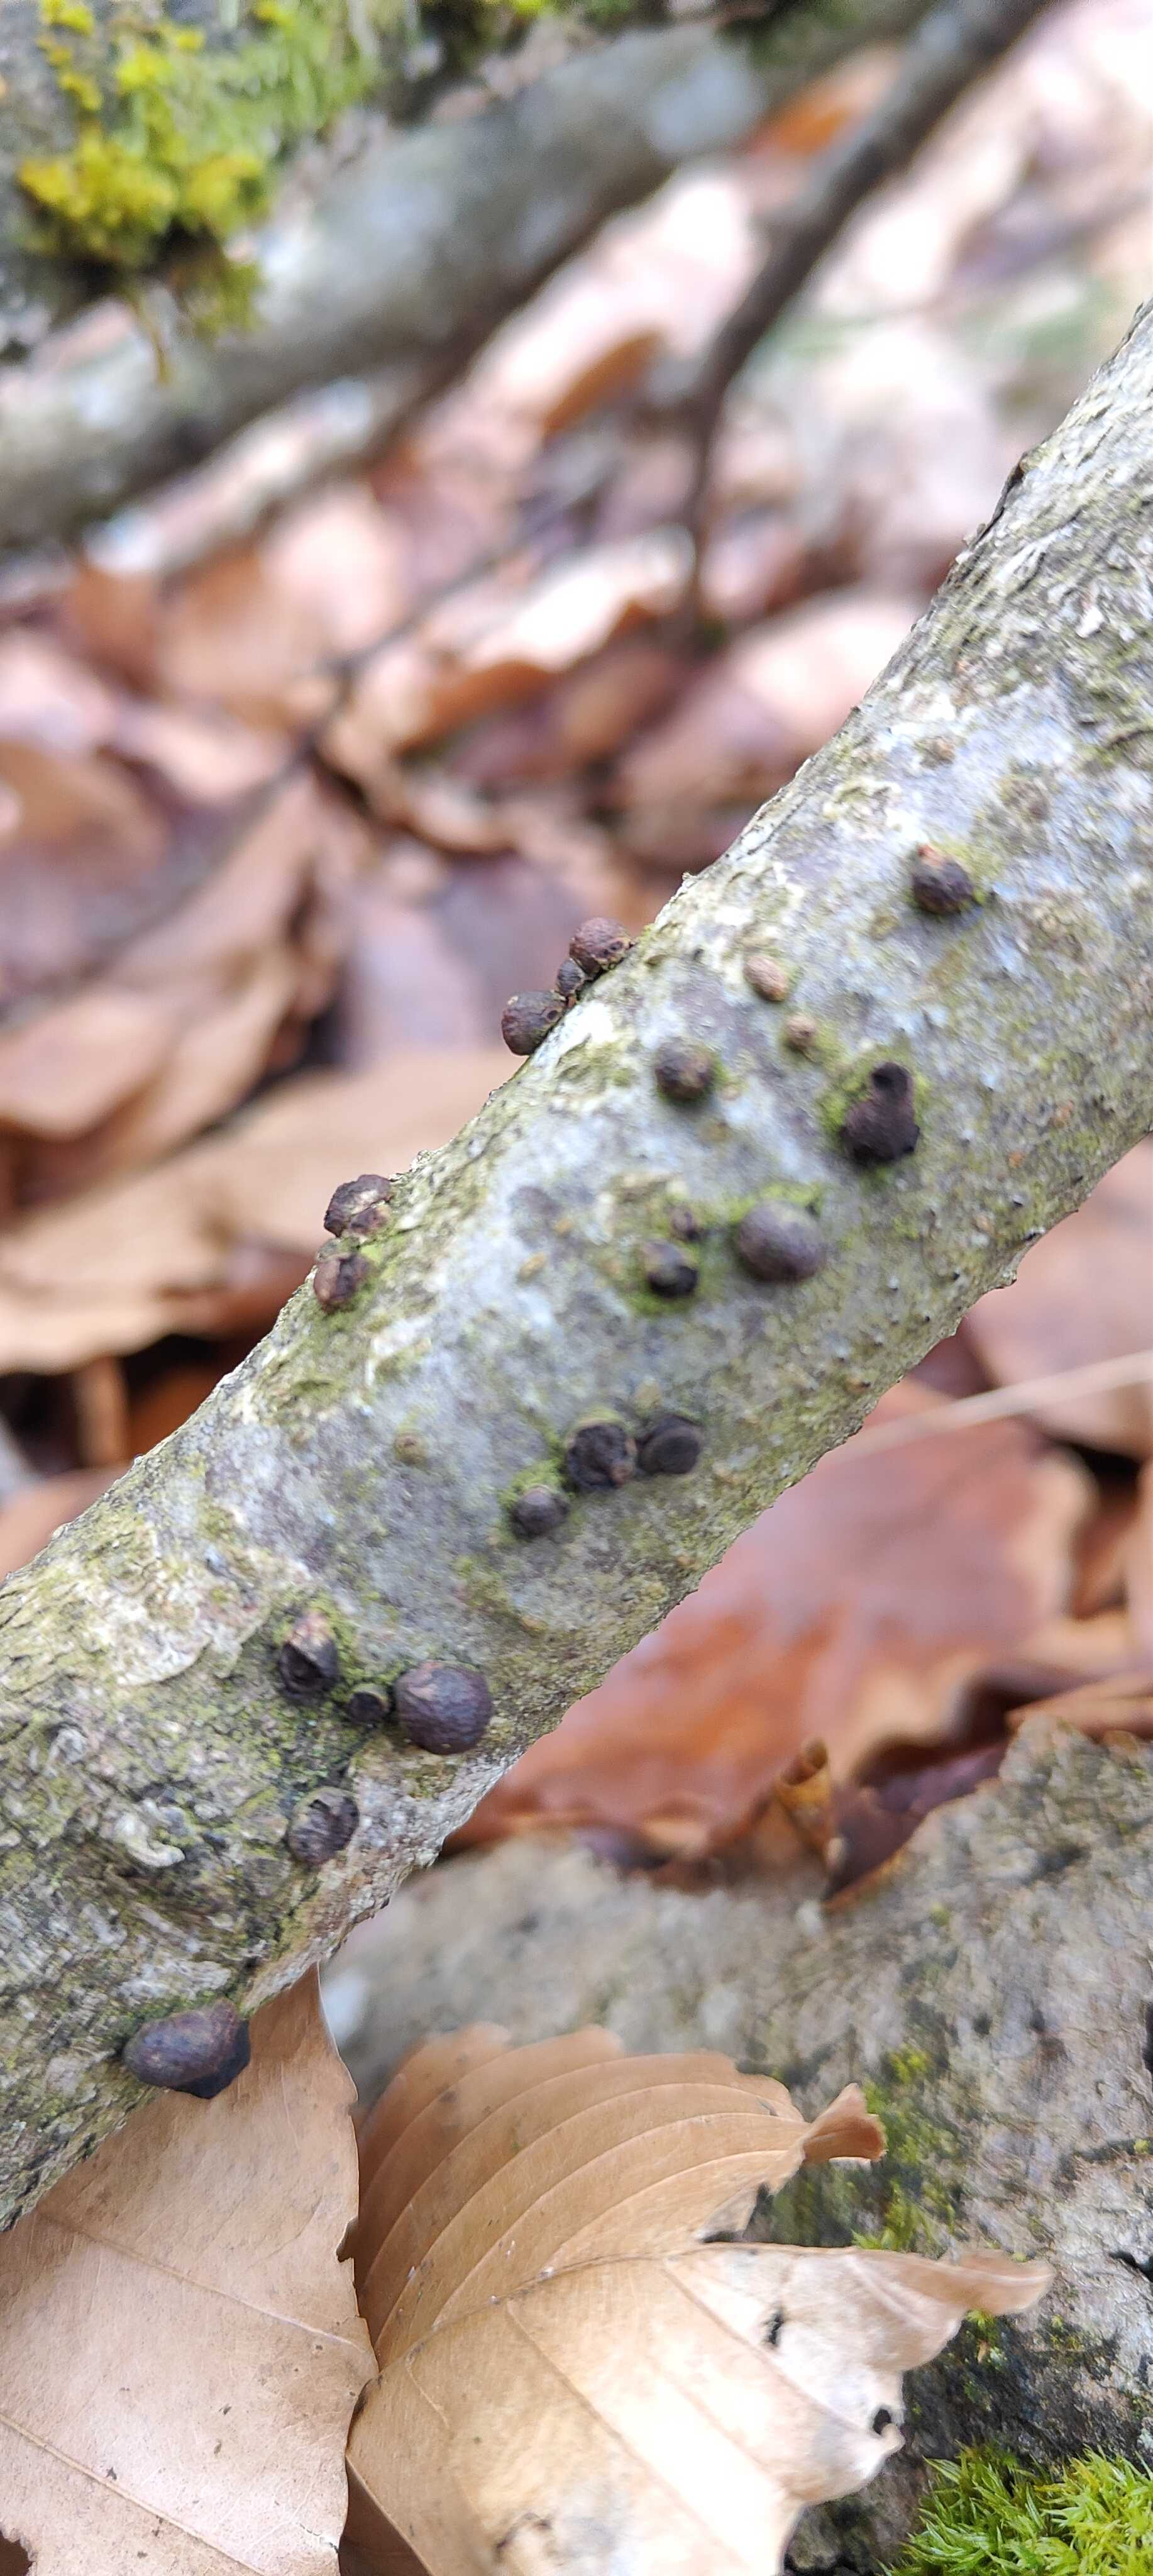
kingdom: Fungi
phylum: Ascomycota
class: Sordariomycetes
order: Xylariales
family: Hypoxylaceae
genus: Hypoxylon
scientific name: Hypoxylon fragiforme
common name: kuljordbær
